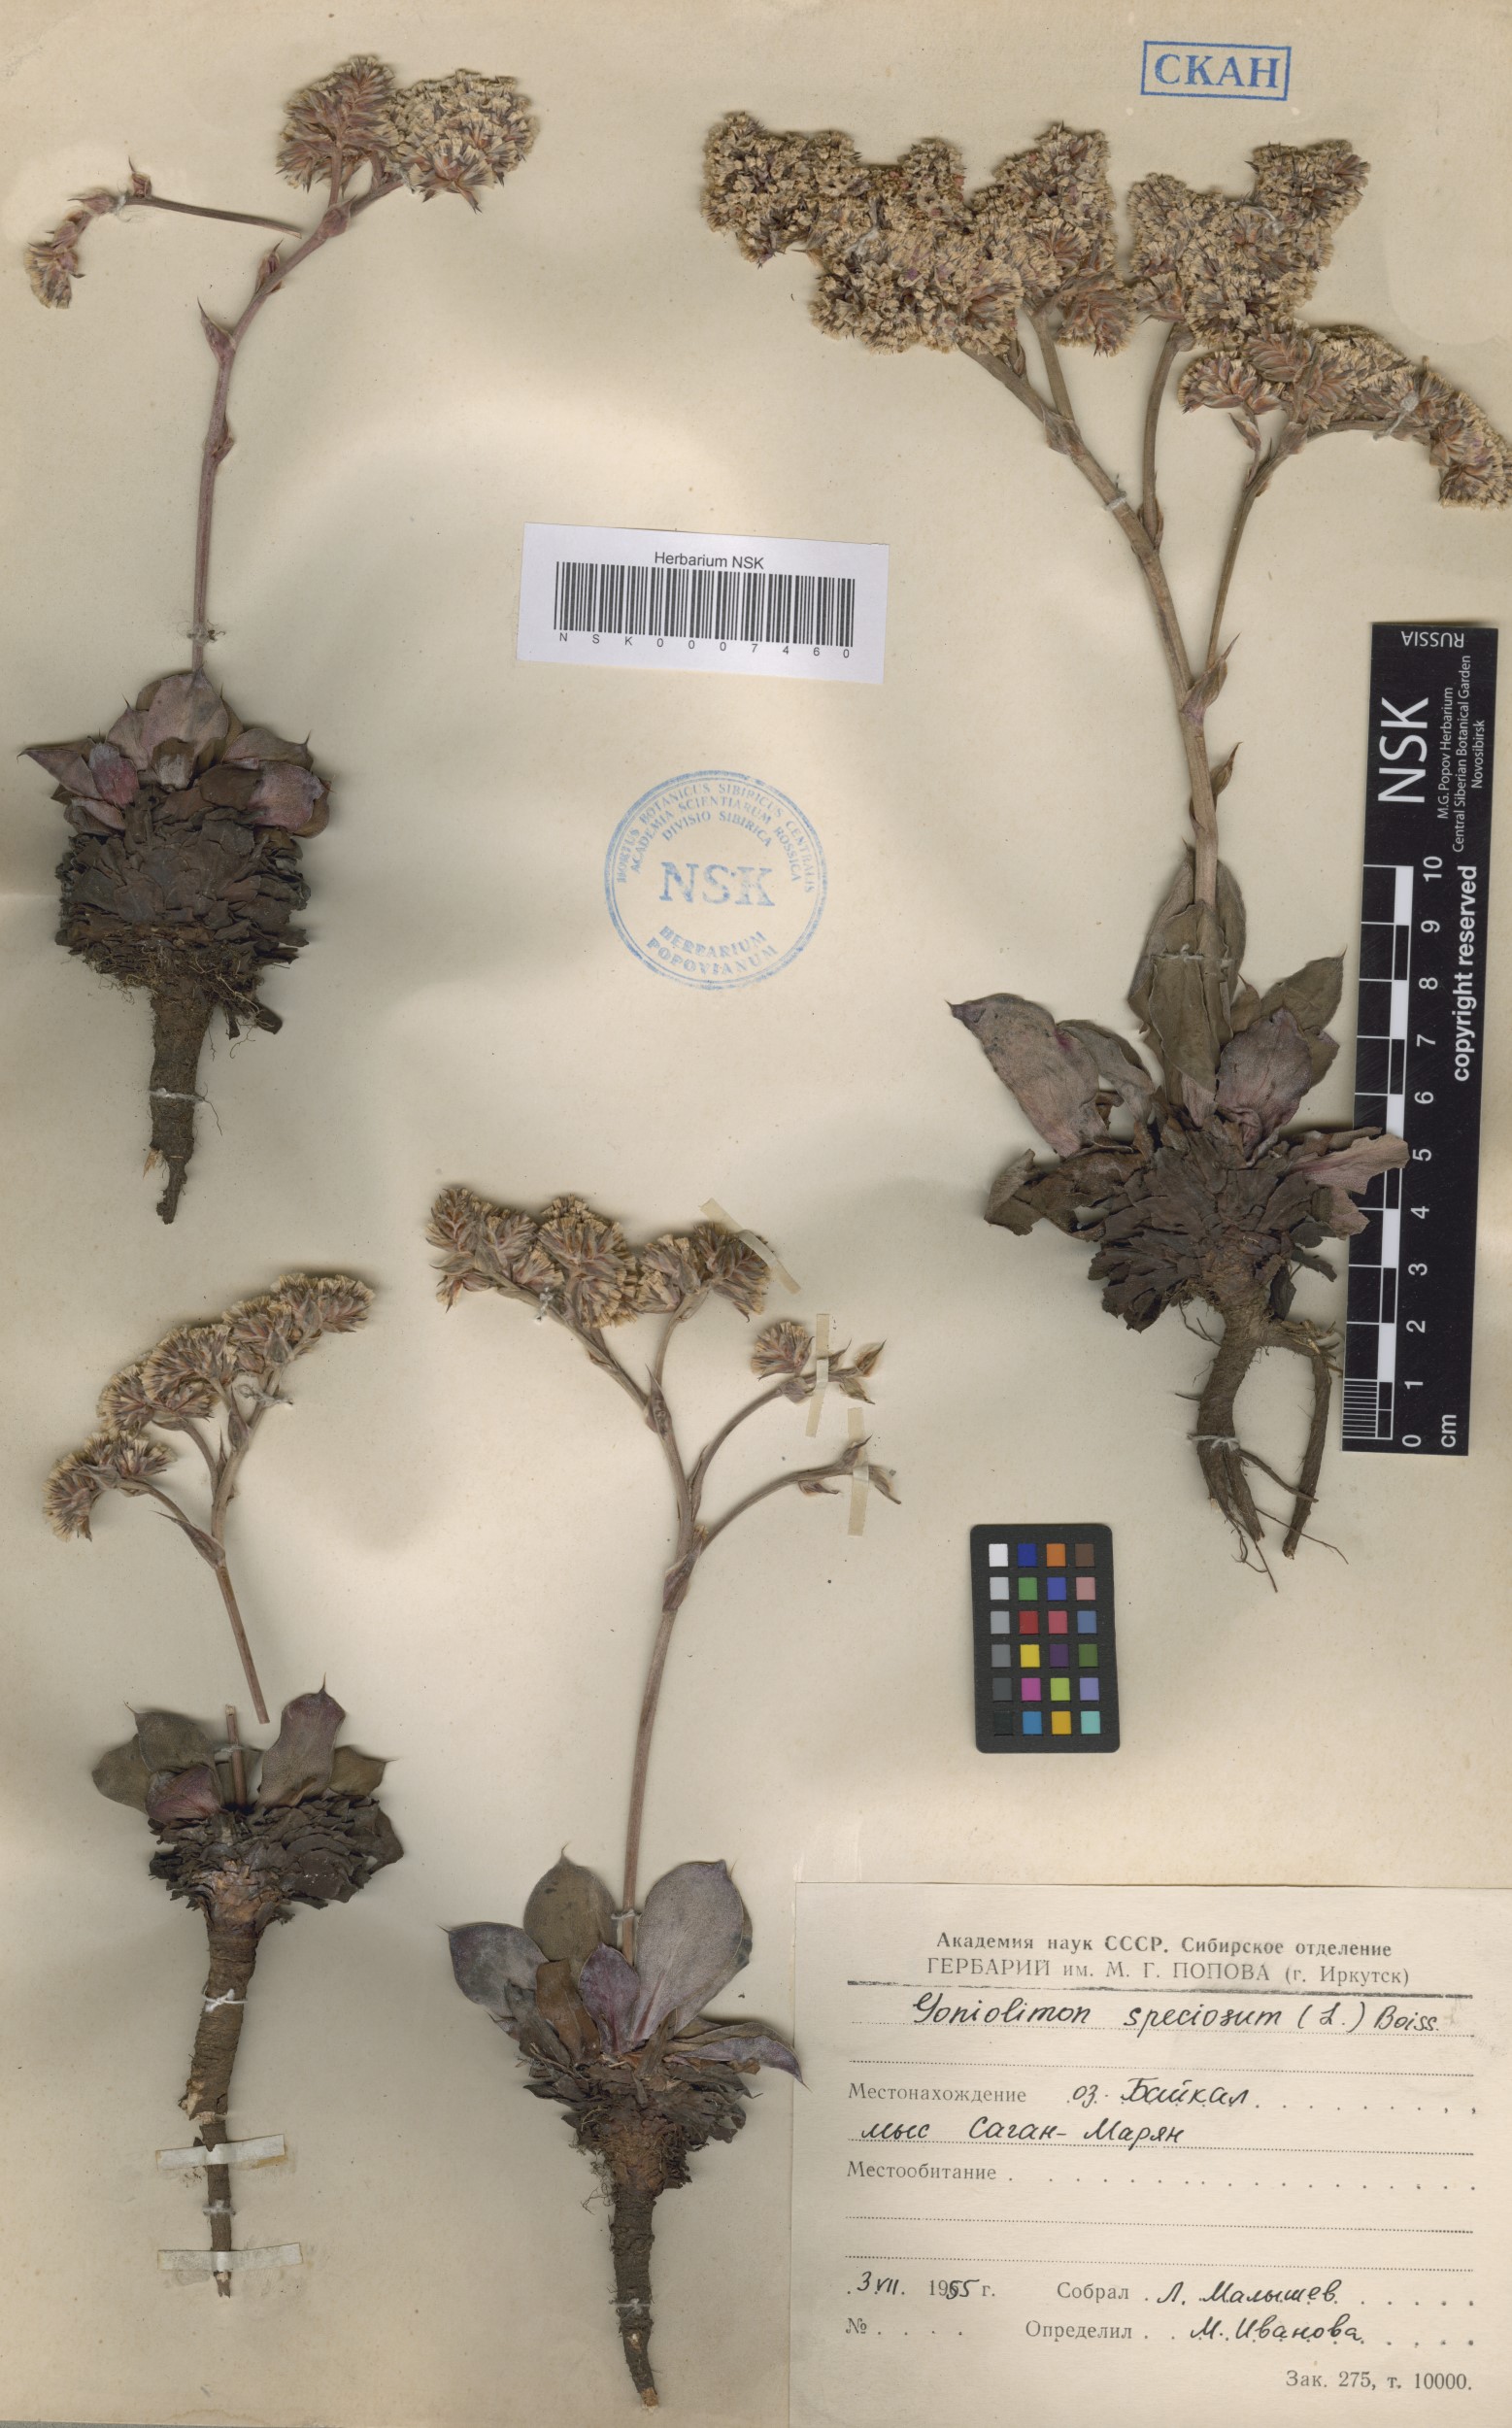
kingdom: Plantae
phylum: Tracheophyta
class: Magnoliopsida
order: Caryophyllales
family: Plumbaginaceae
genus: Goniolimon
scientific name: Goniolimon speciosum
